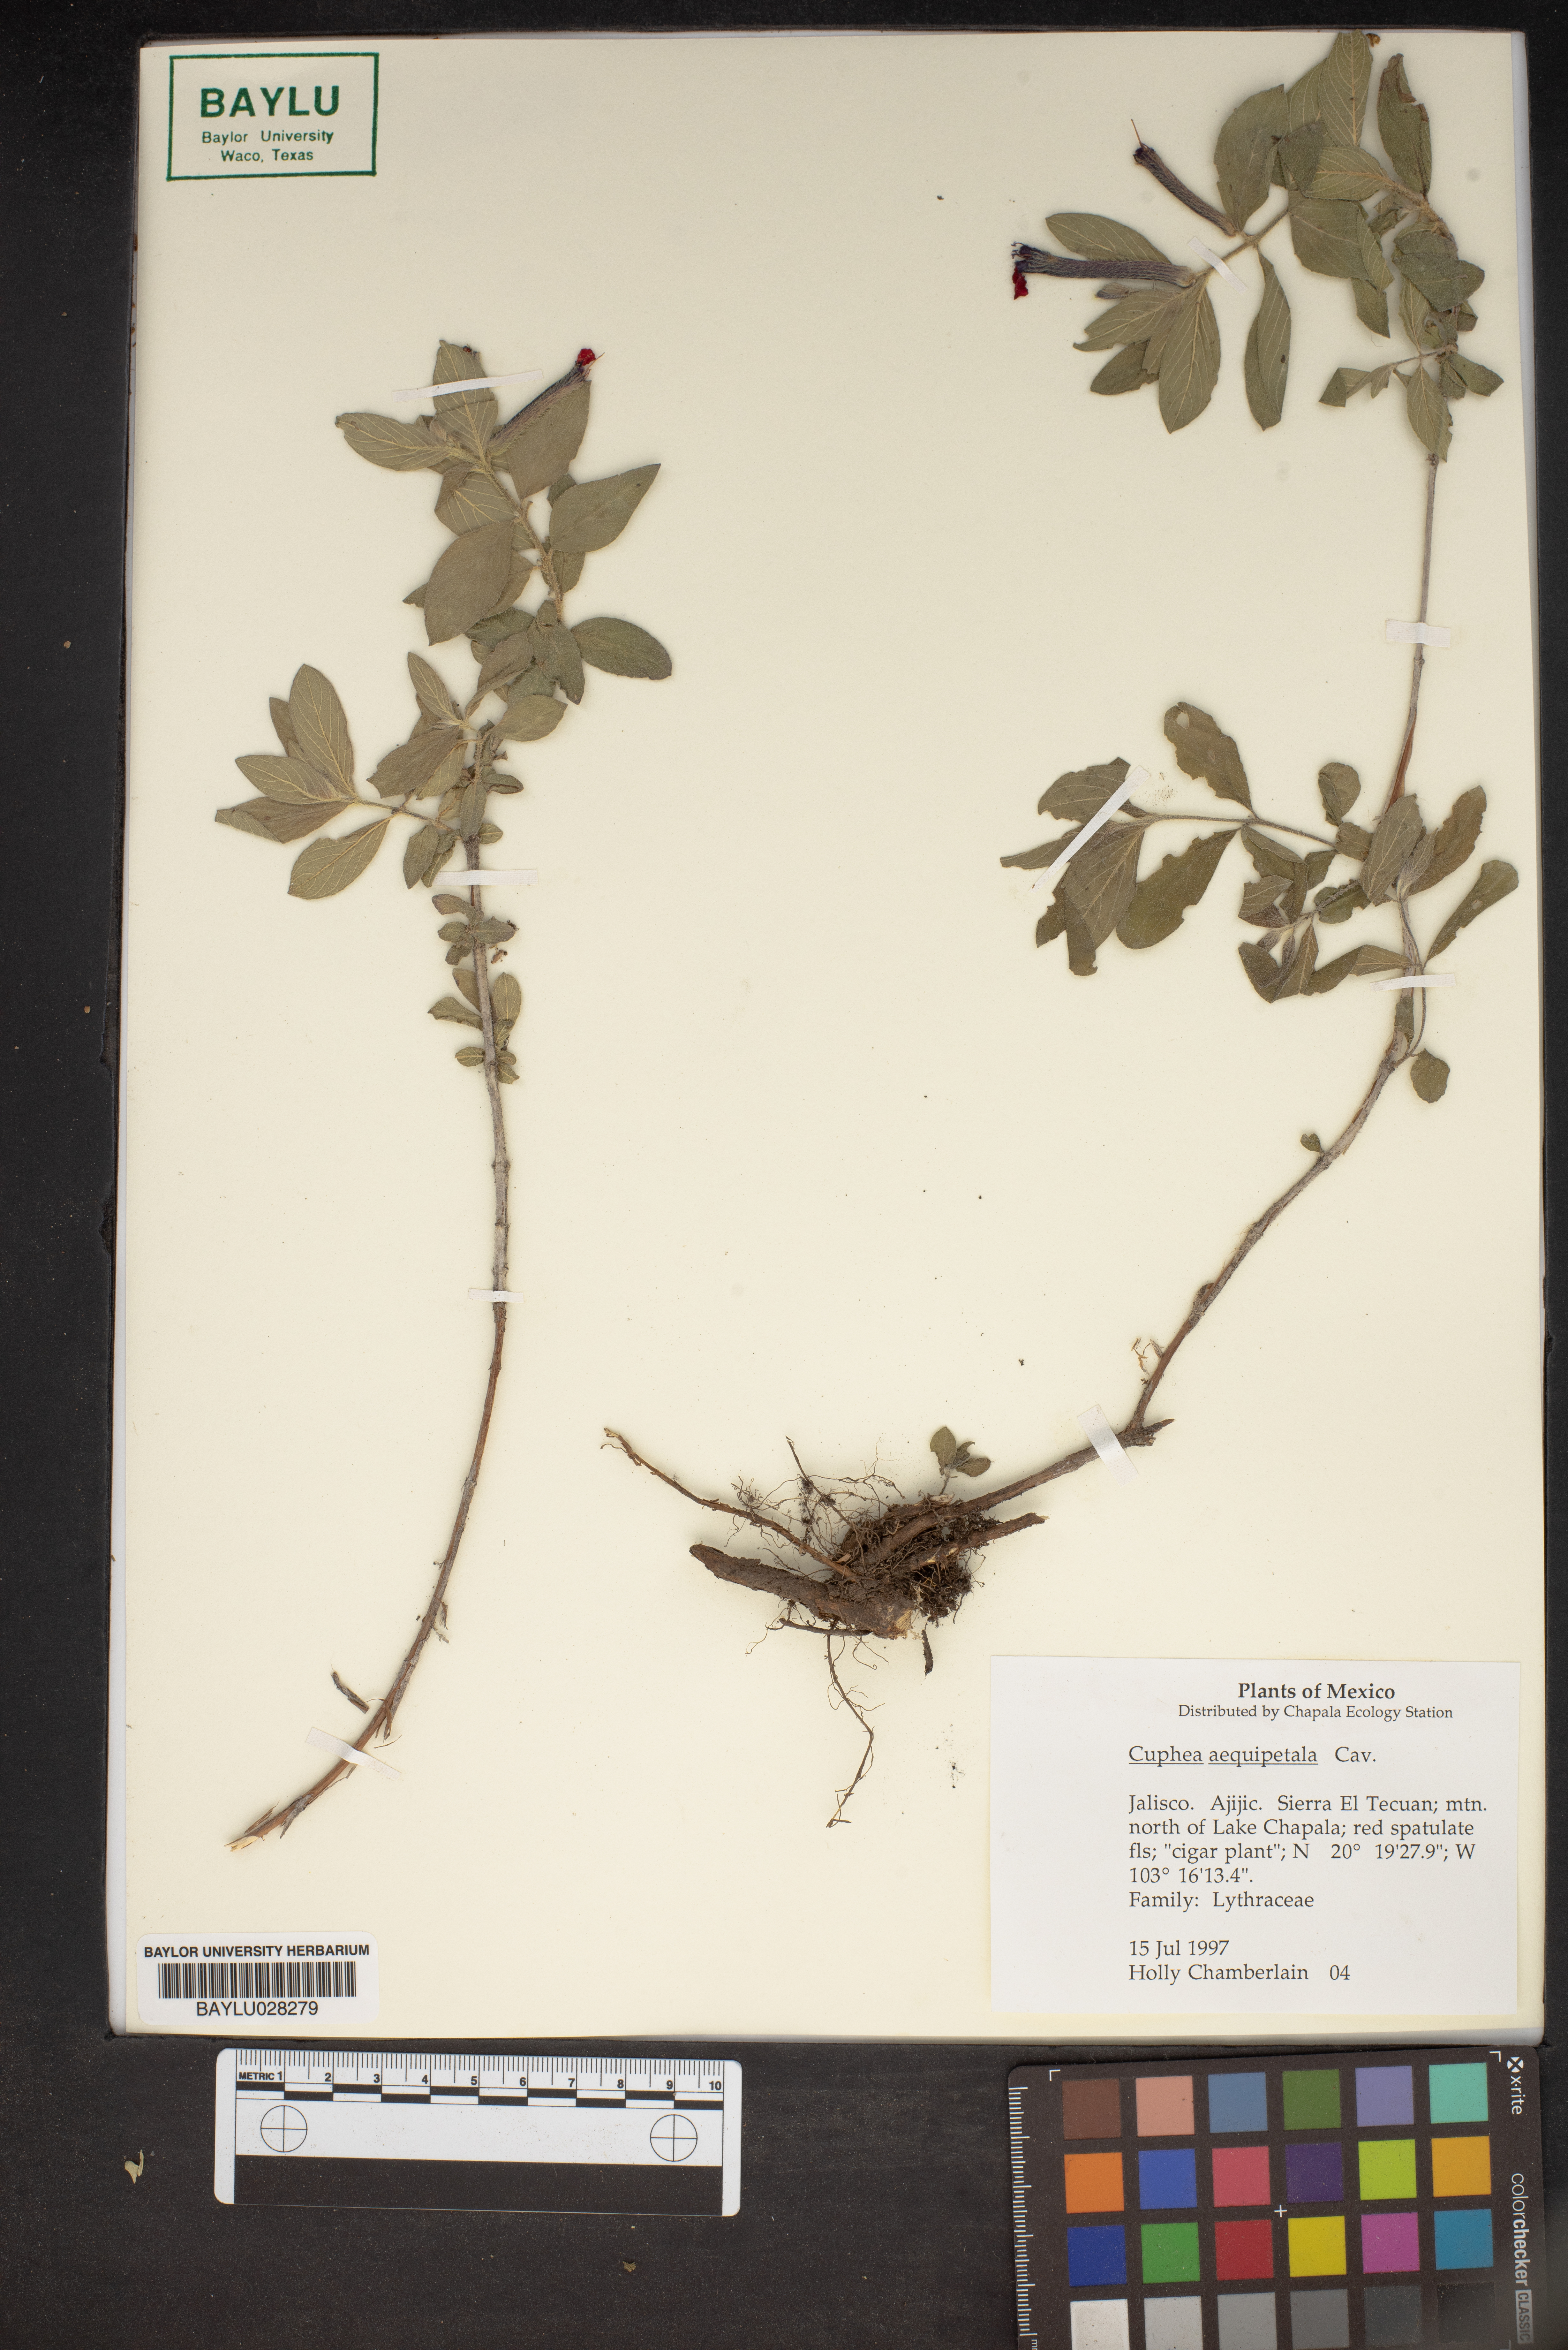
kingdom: Plantae
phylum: Tracheophyta
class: Magnoliopsida
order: Myrtales
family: Lythraceae
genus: Cuphea
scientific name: Cuphea nitidula
